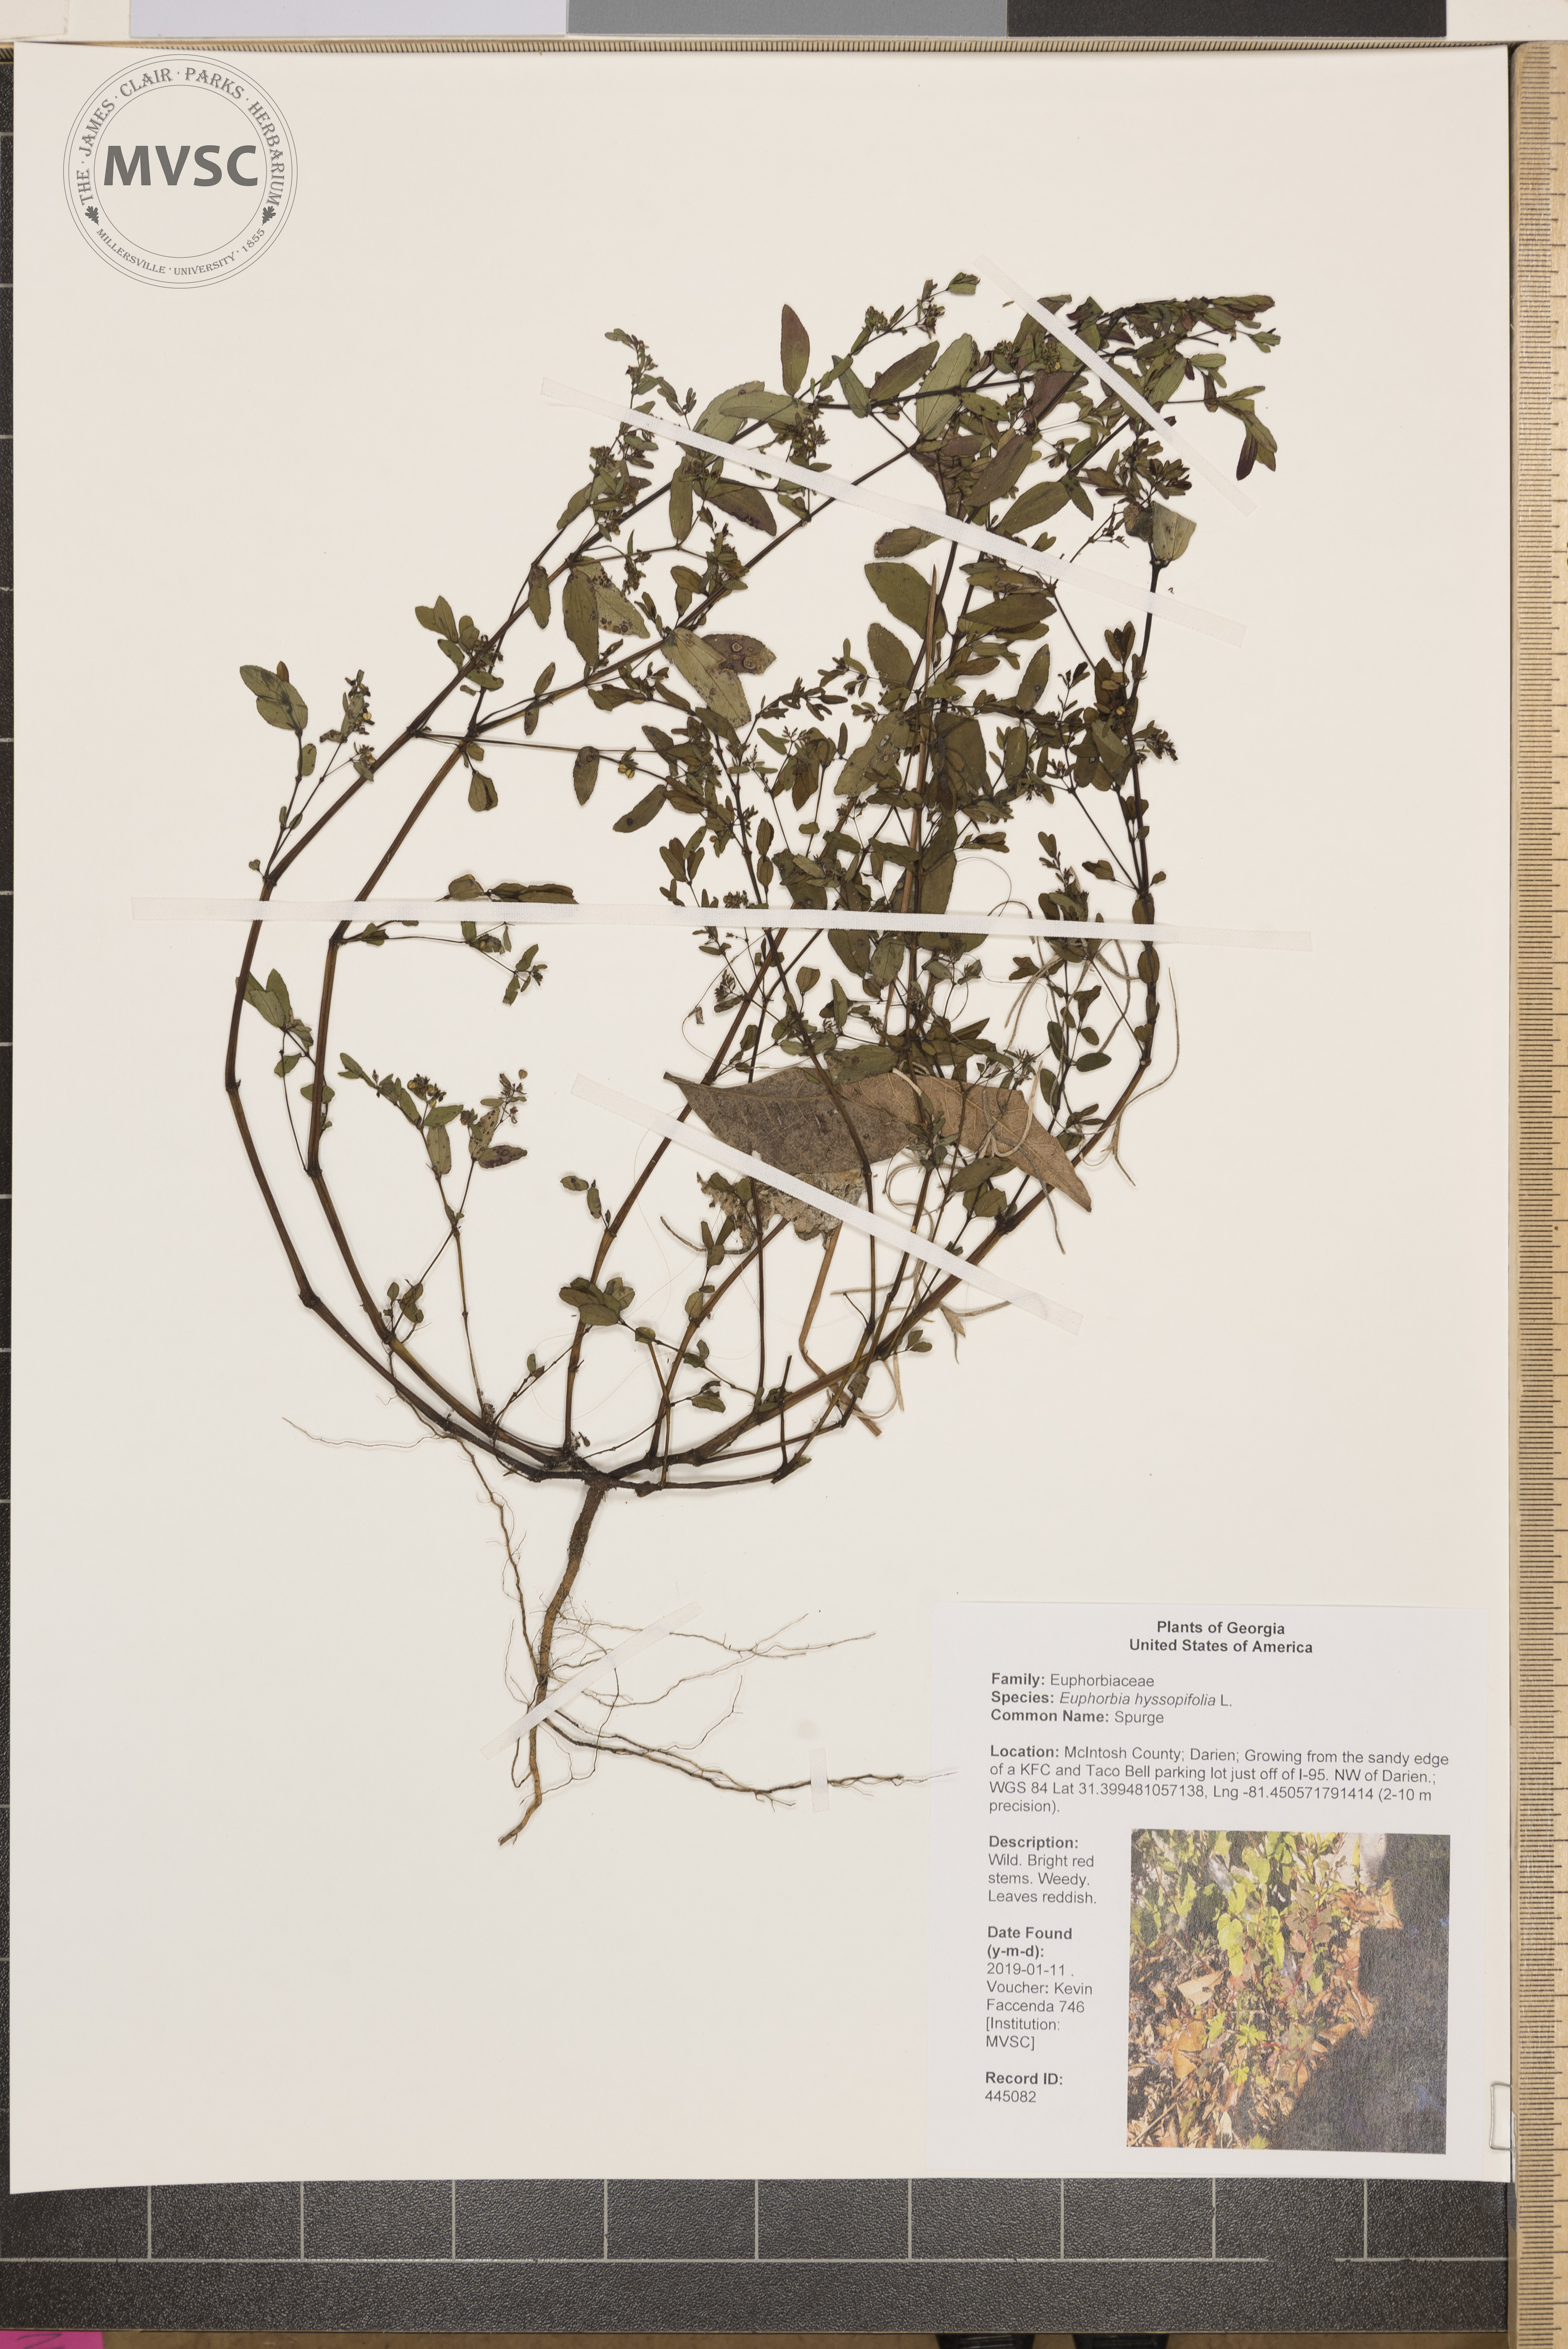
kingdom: Plantae
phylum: Tracheophyta
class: Magnoliopsida
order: Malpighiales
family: Euphorbiaceae
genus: Euphorbia
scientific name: Euphorbia hyssopifolia
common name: Spurge
